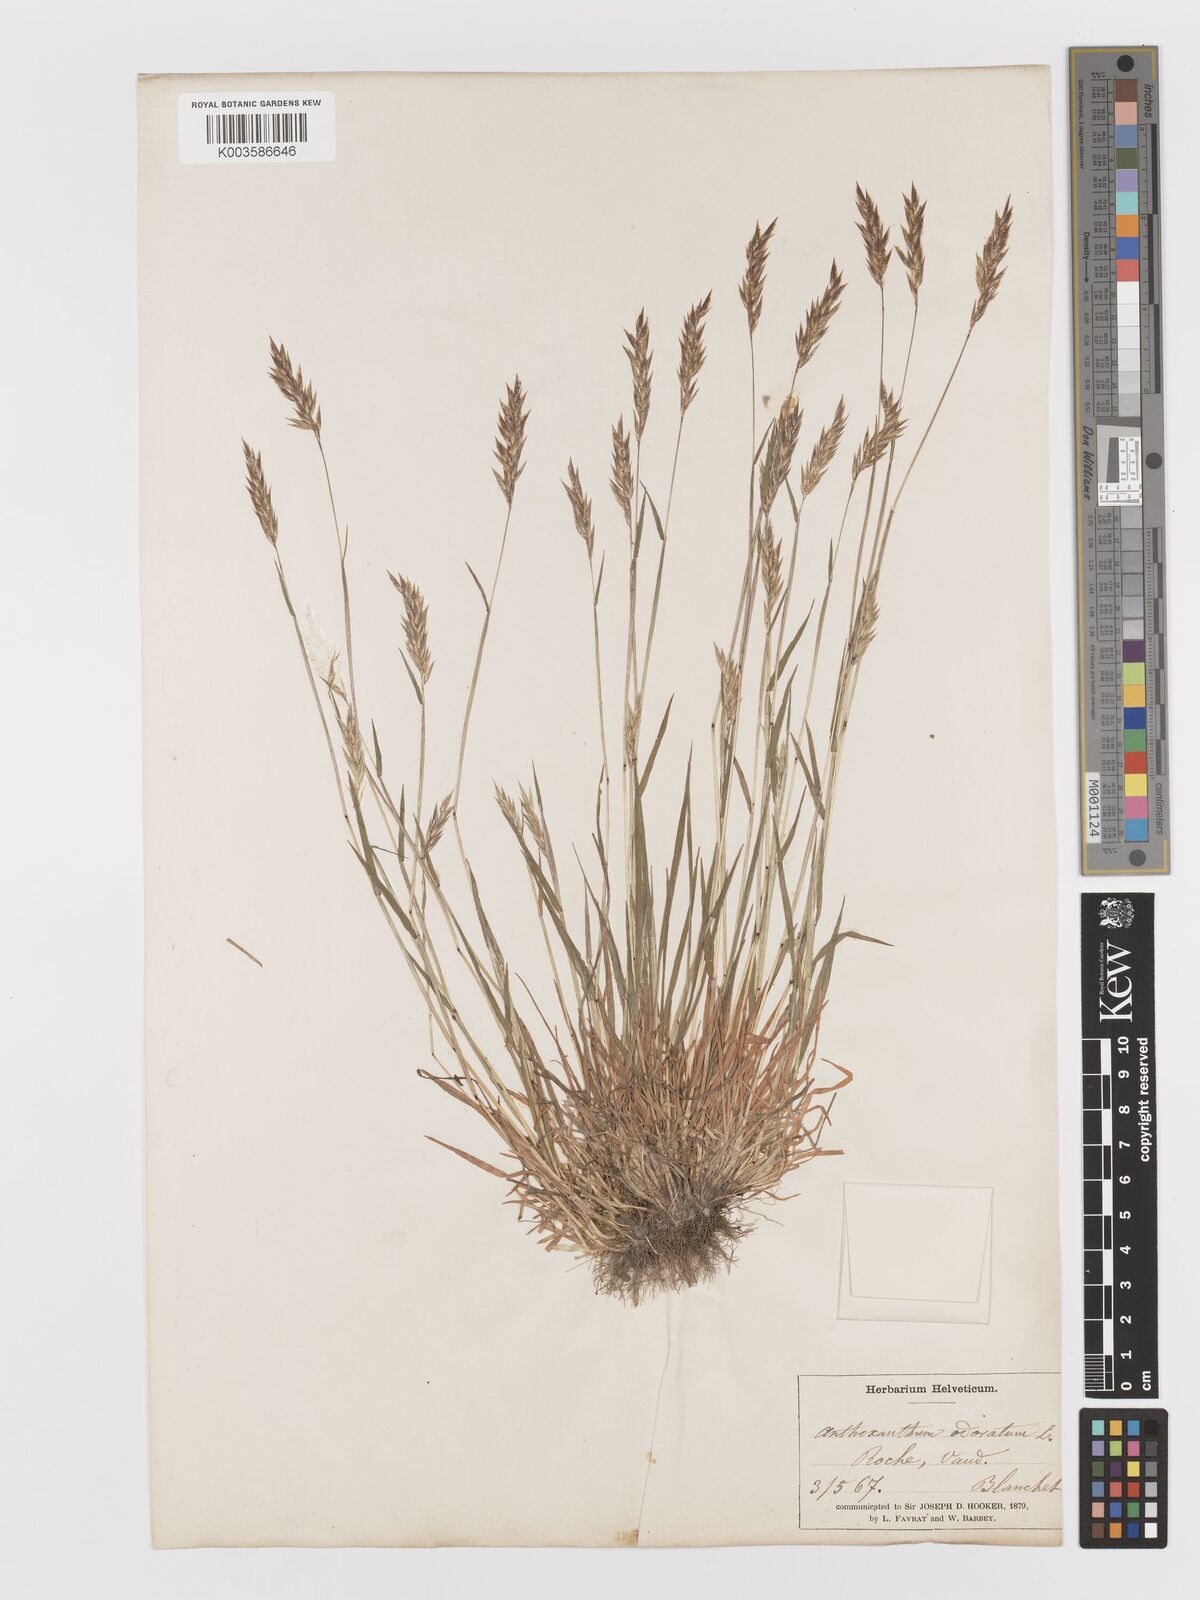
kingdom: Plantae
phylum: Tracheophyta
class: Liliopsida
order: Poales
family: Poaceae
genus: Anthoxanthum
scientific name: Anthoxanthum odoratum
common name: Sweet vernalgrass
